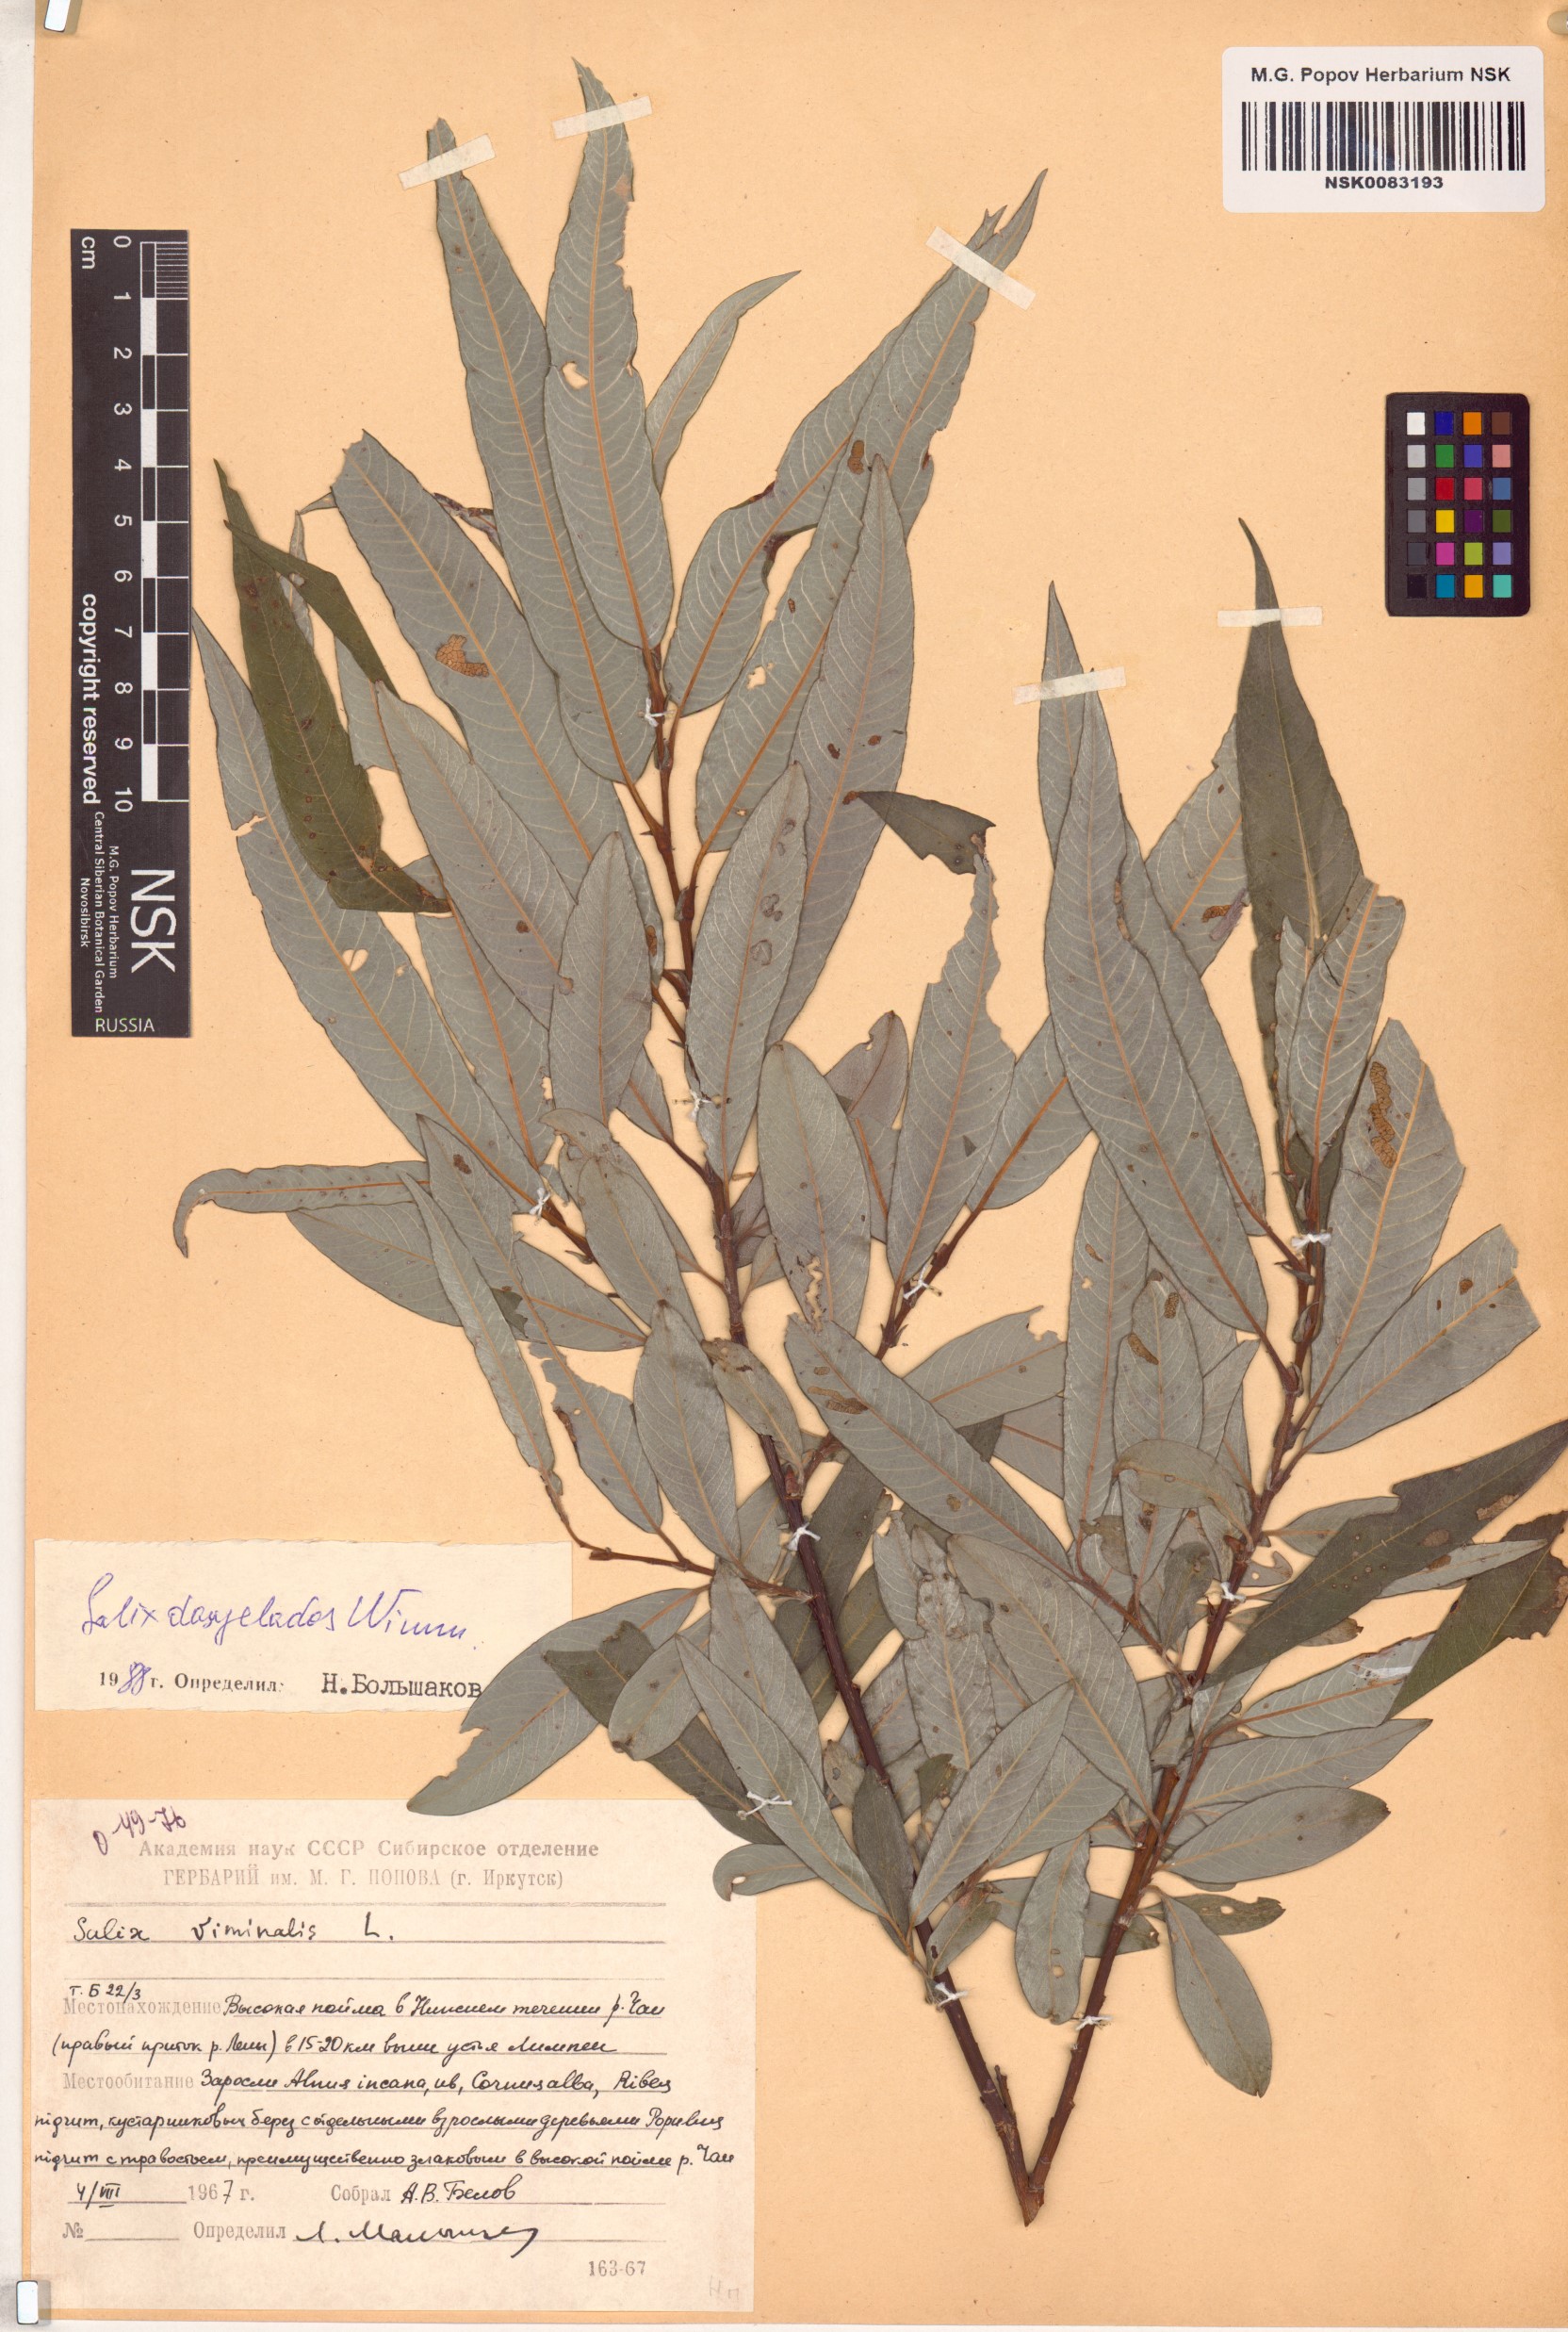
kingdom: Plantae
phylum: Tracheophyta
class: Magnoliopsida
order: Malpighiales
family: Salicaceae
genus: Salix
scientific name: Salix gmelinii
